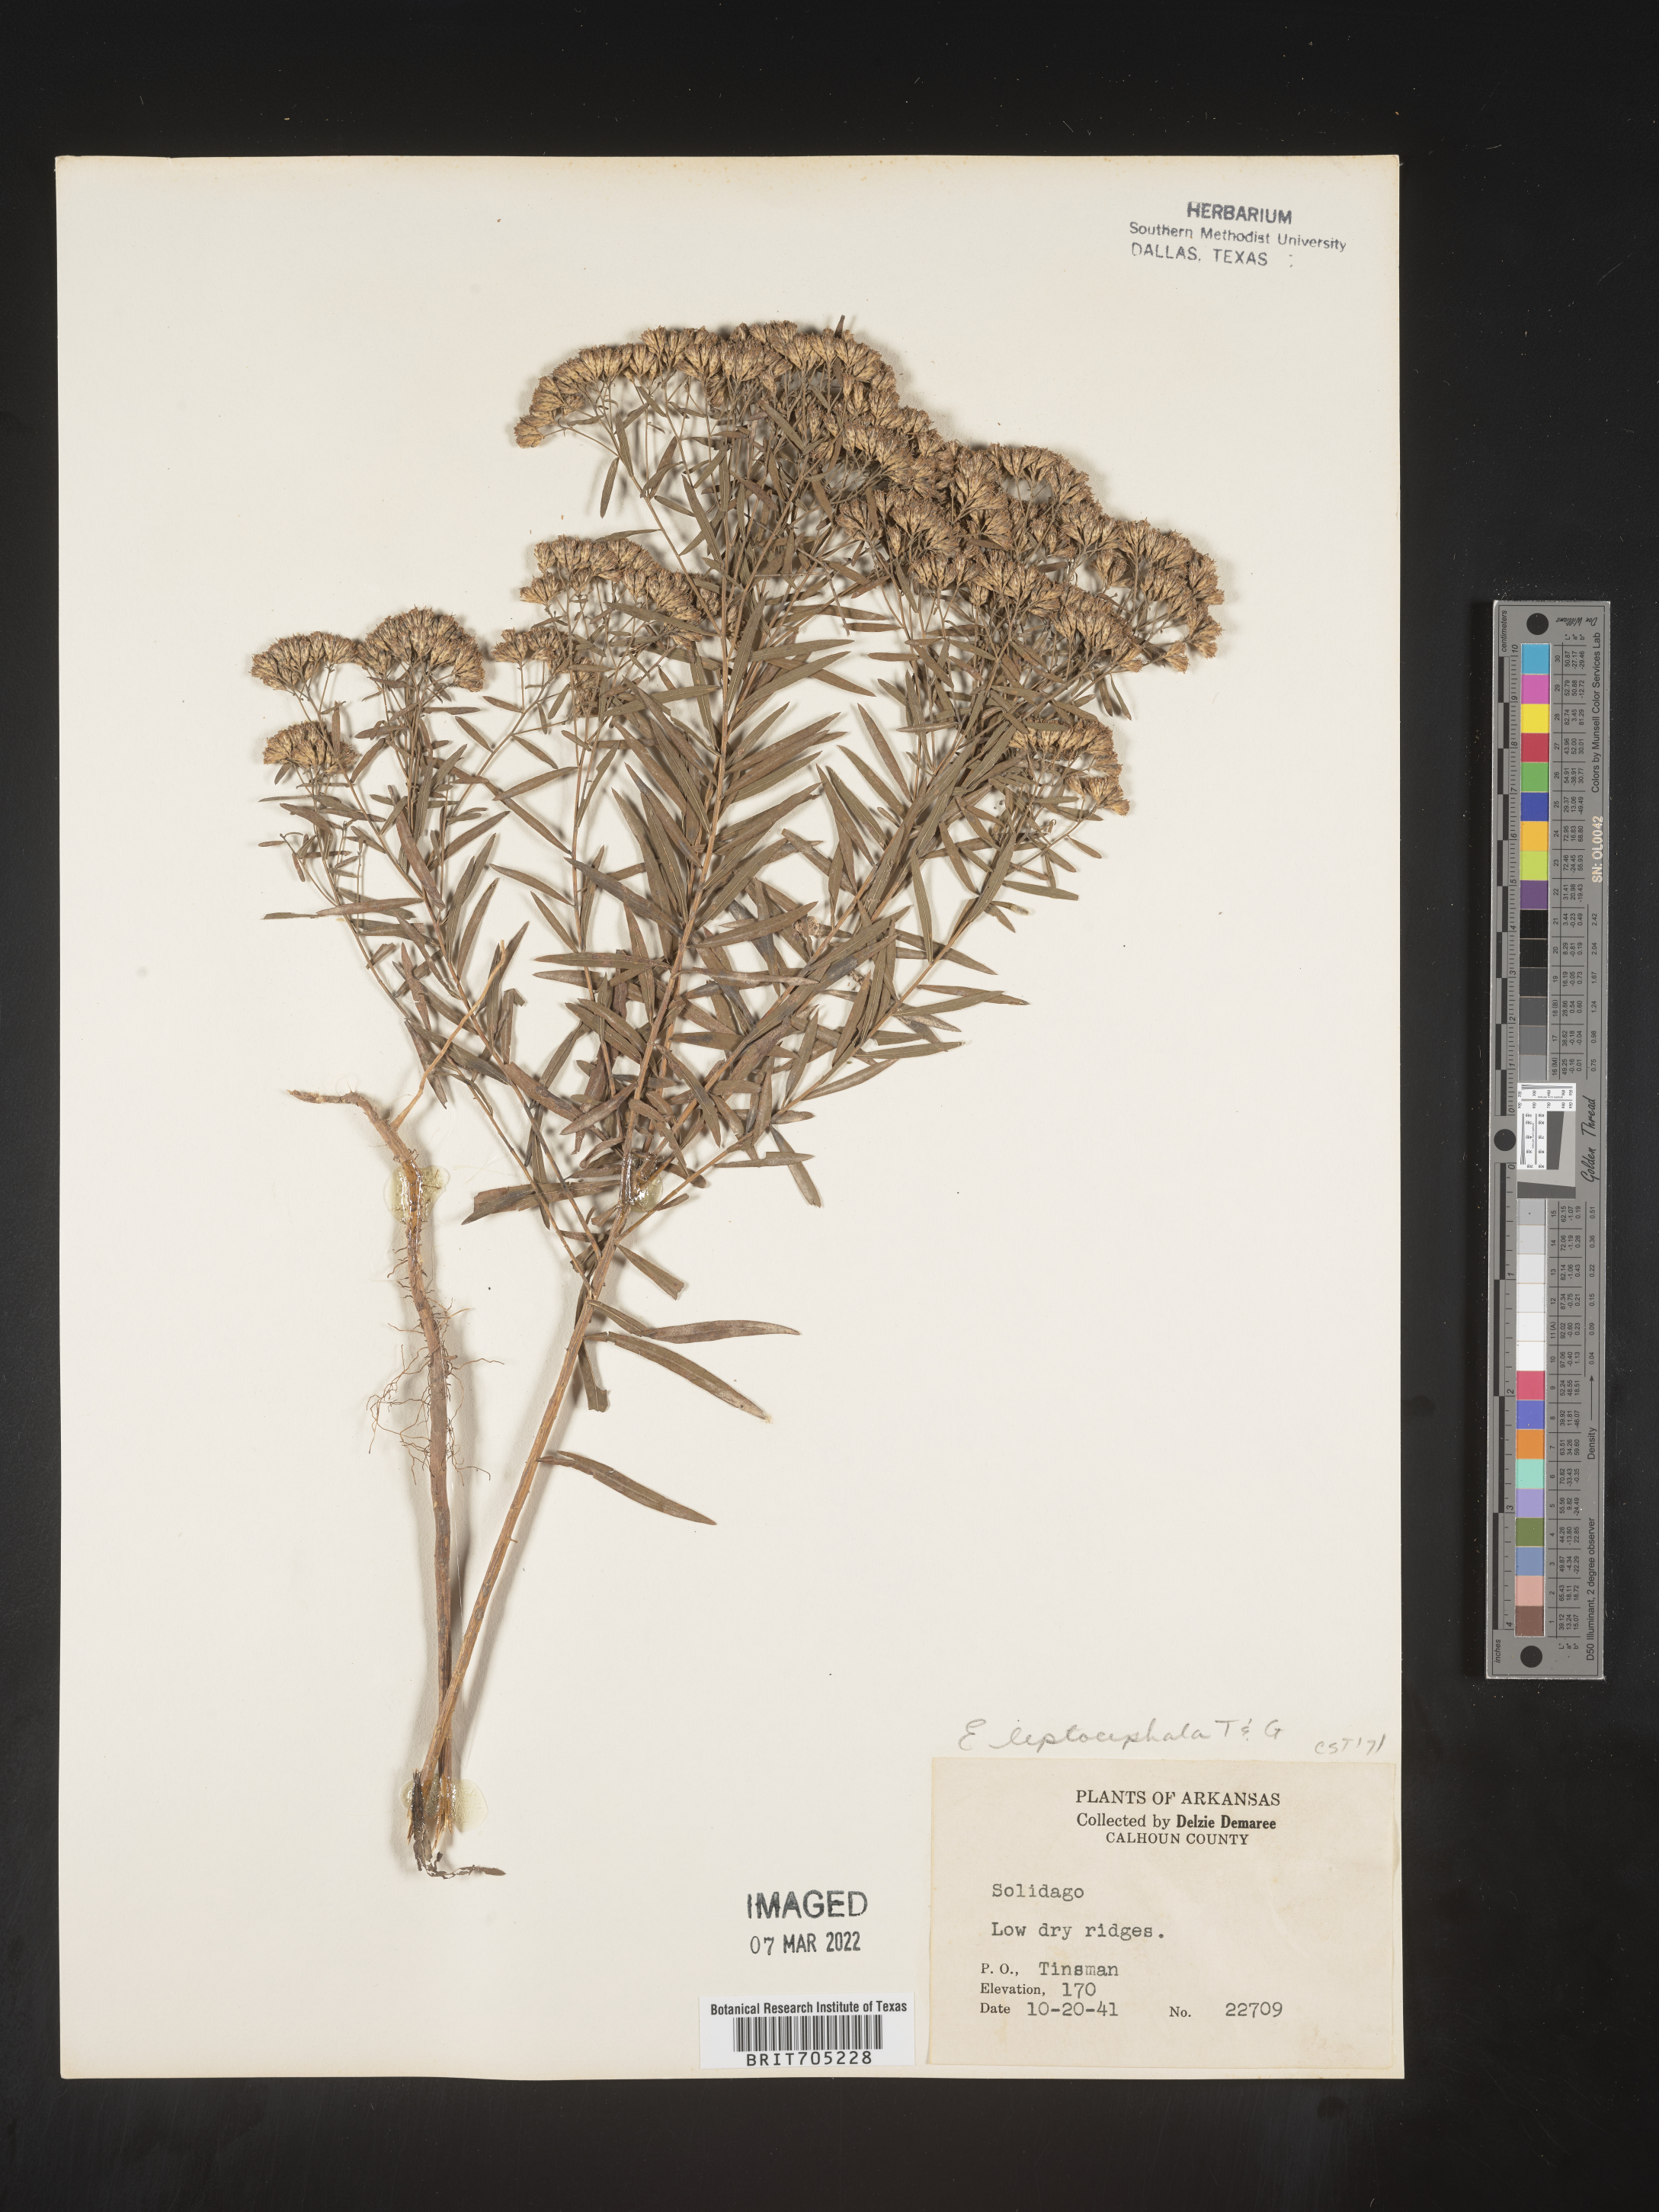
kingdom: Plantae
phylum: Tracheophyta
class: Magnoliopsida
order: Asterales
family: Asteraceae
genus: Euthamia
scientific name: Euthamia leptocephala
